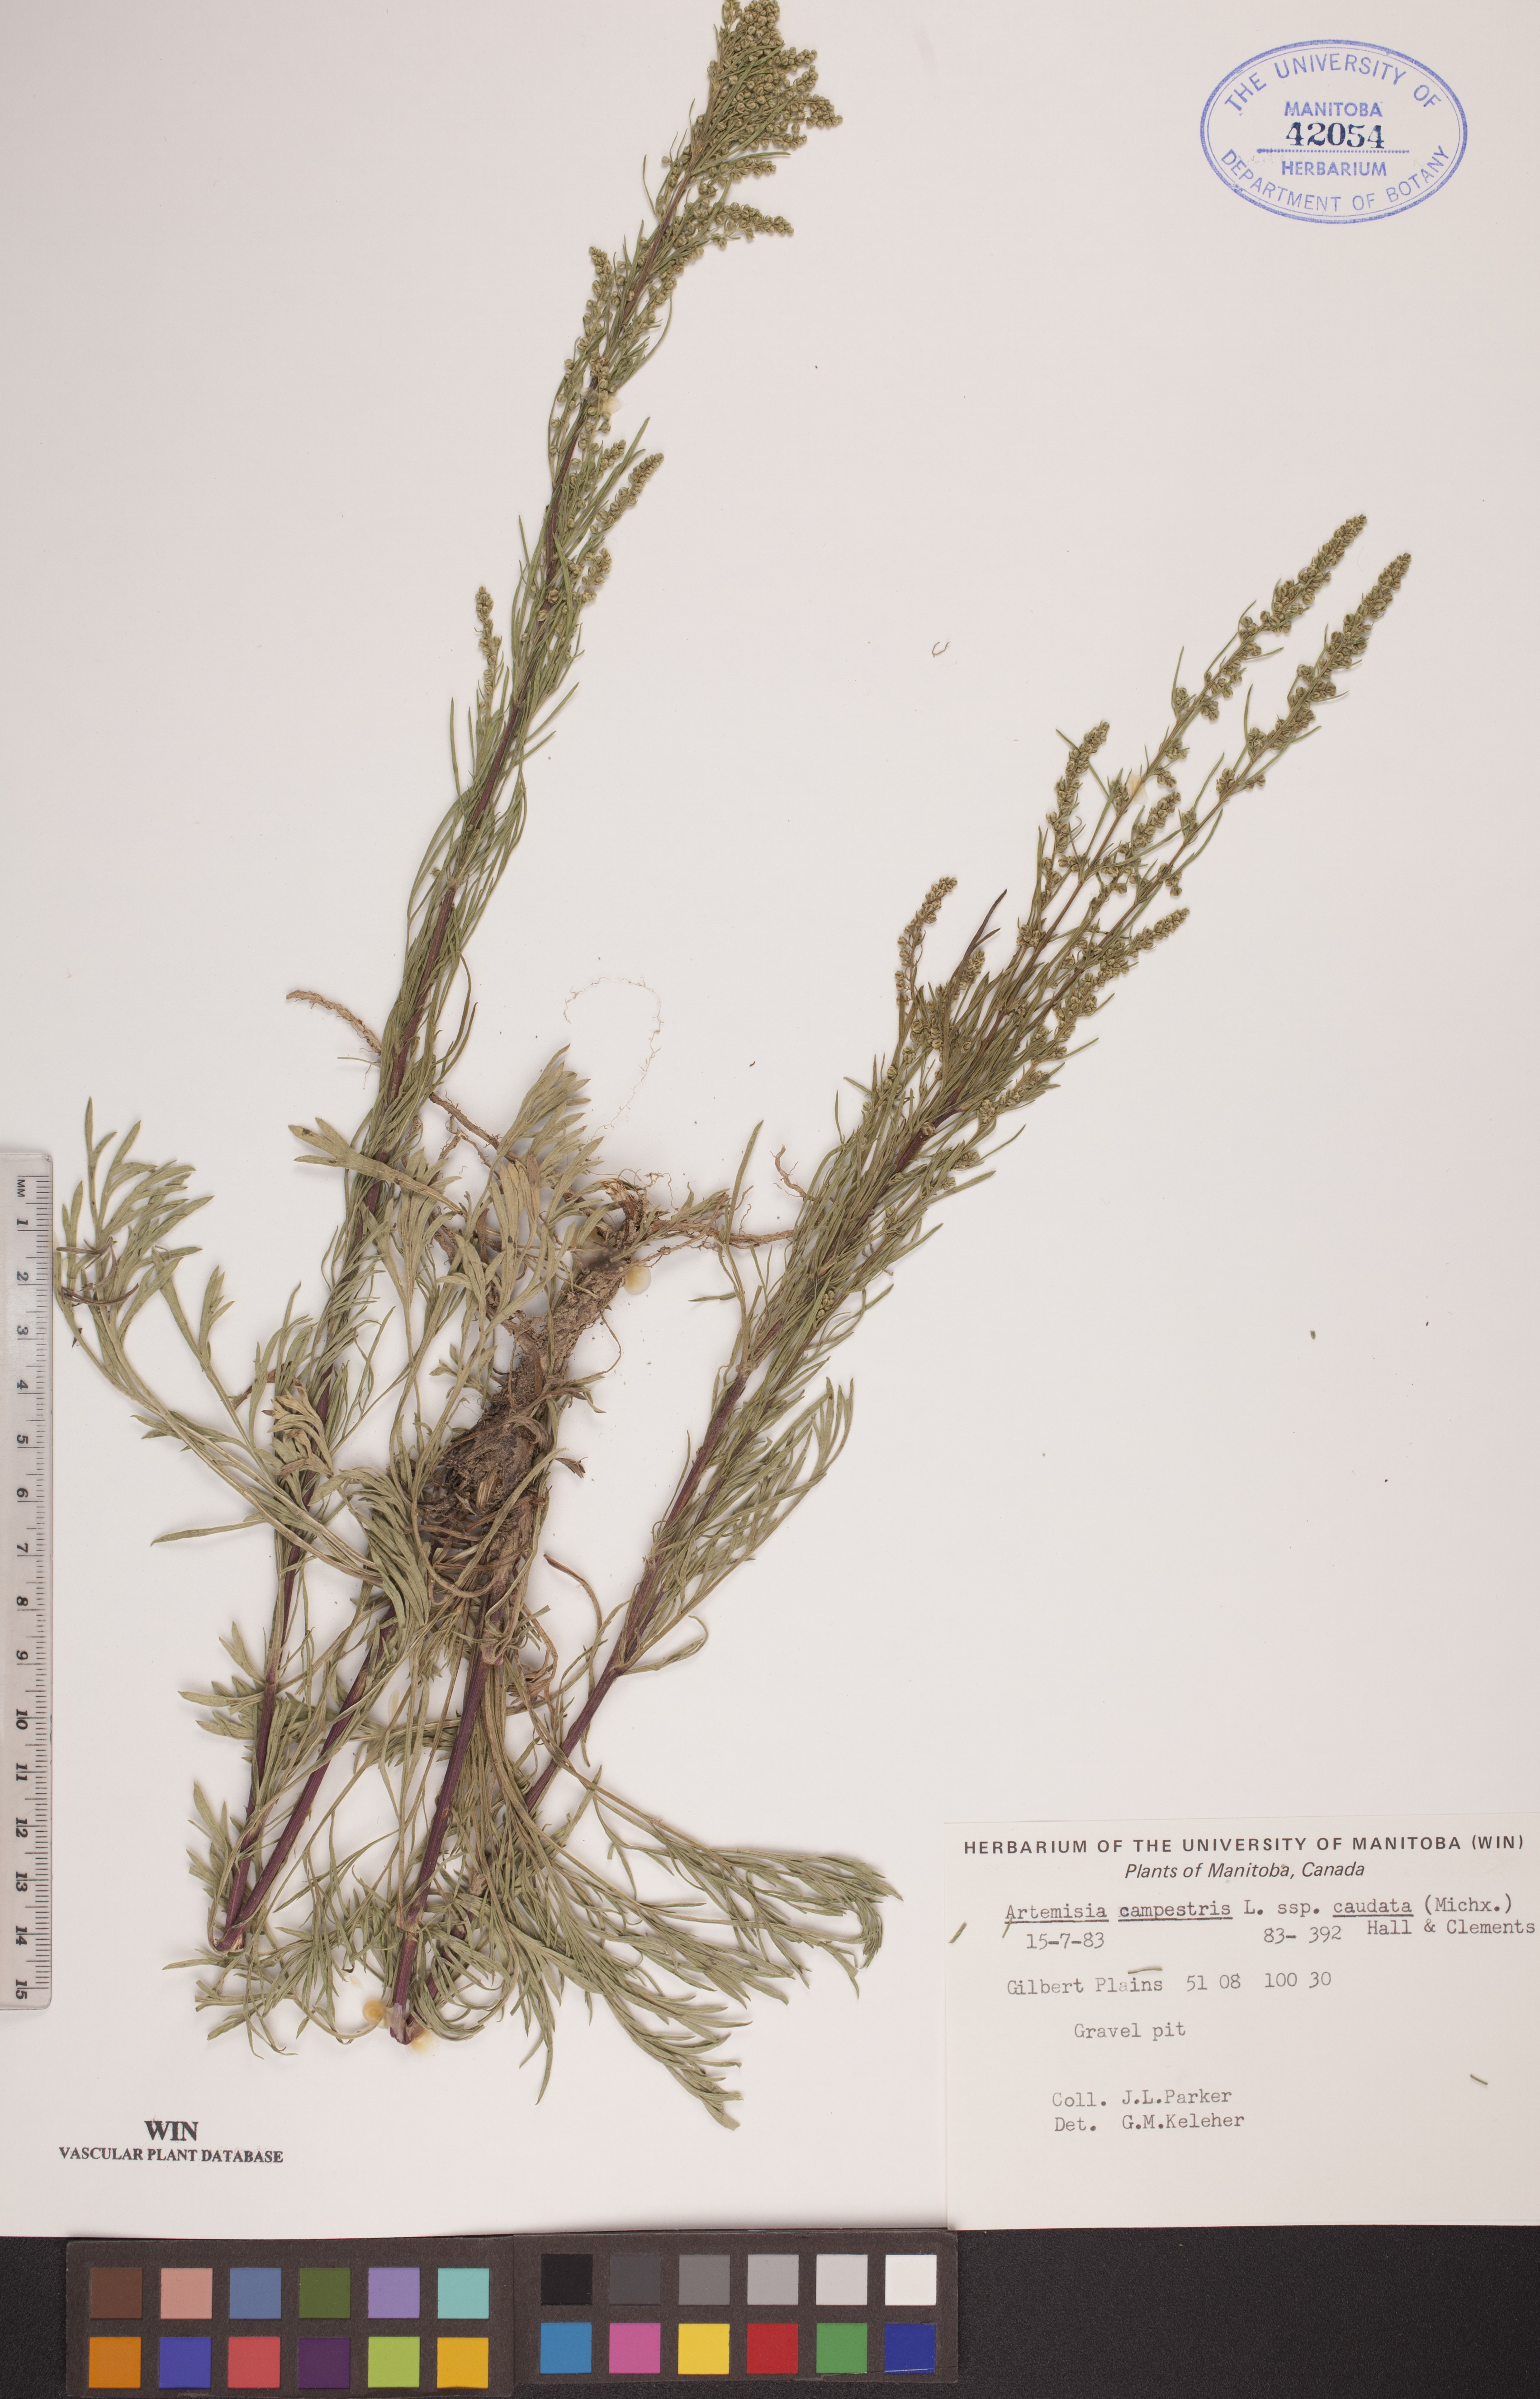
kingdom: Plantae
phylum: Tracheophyta
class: Magnoliopsida
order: Asterales
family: Asteraceae
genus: Artemisia
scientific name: Artemisia campestris
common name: Field wormwood
